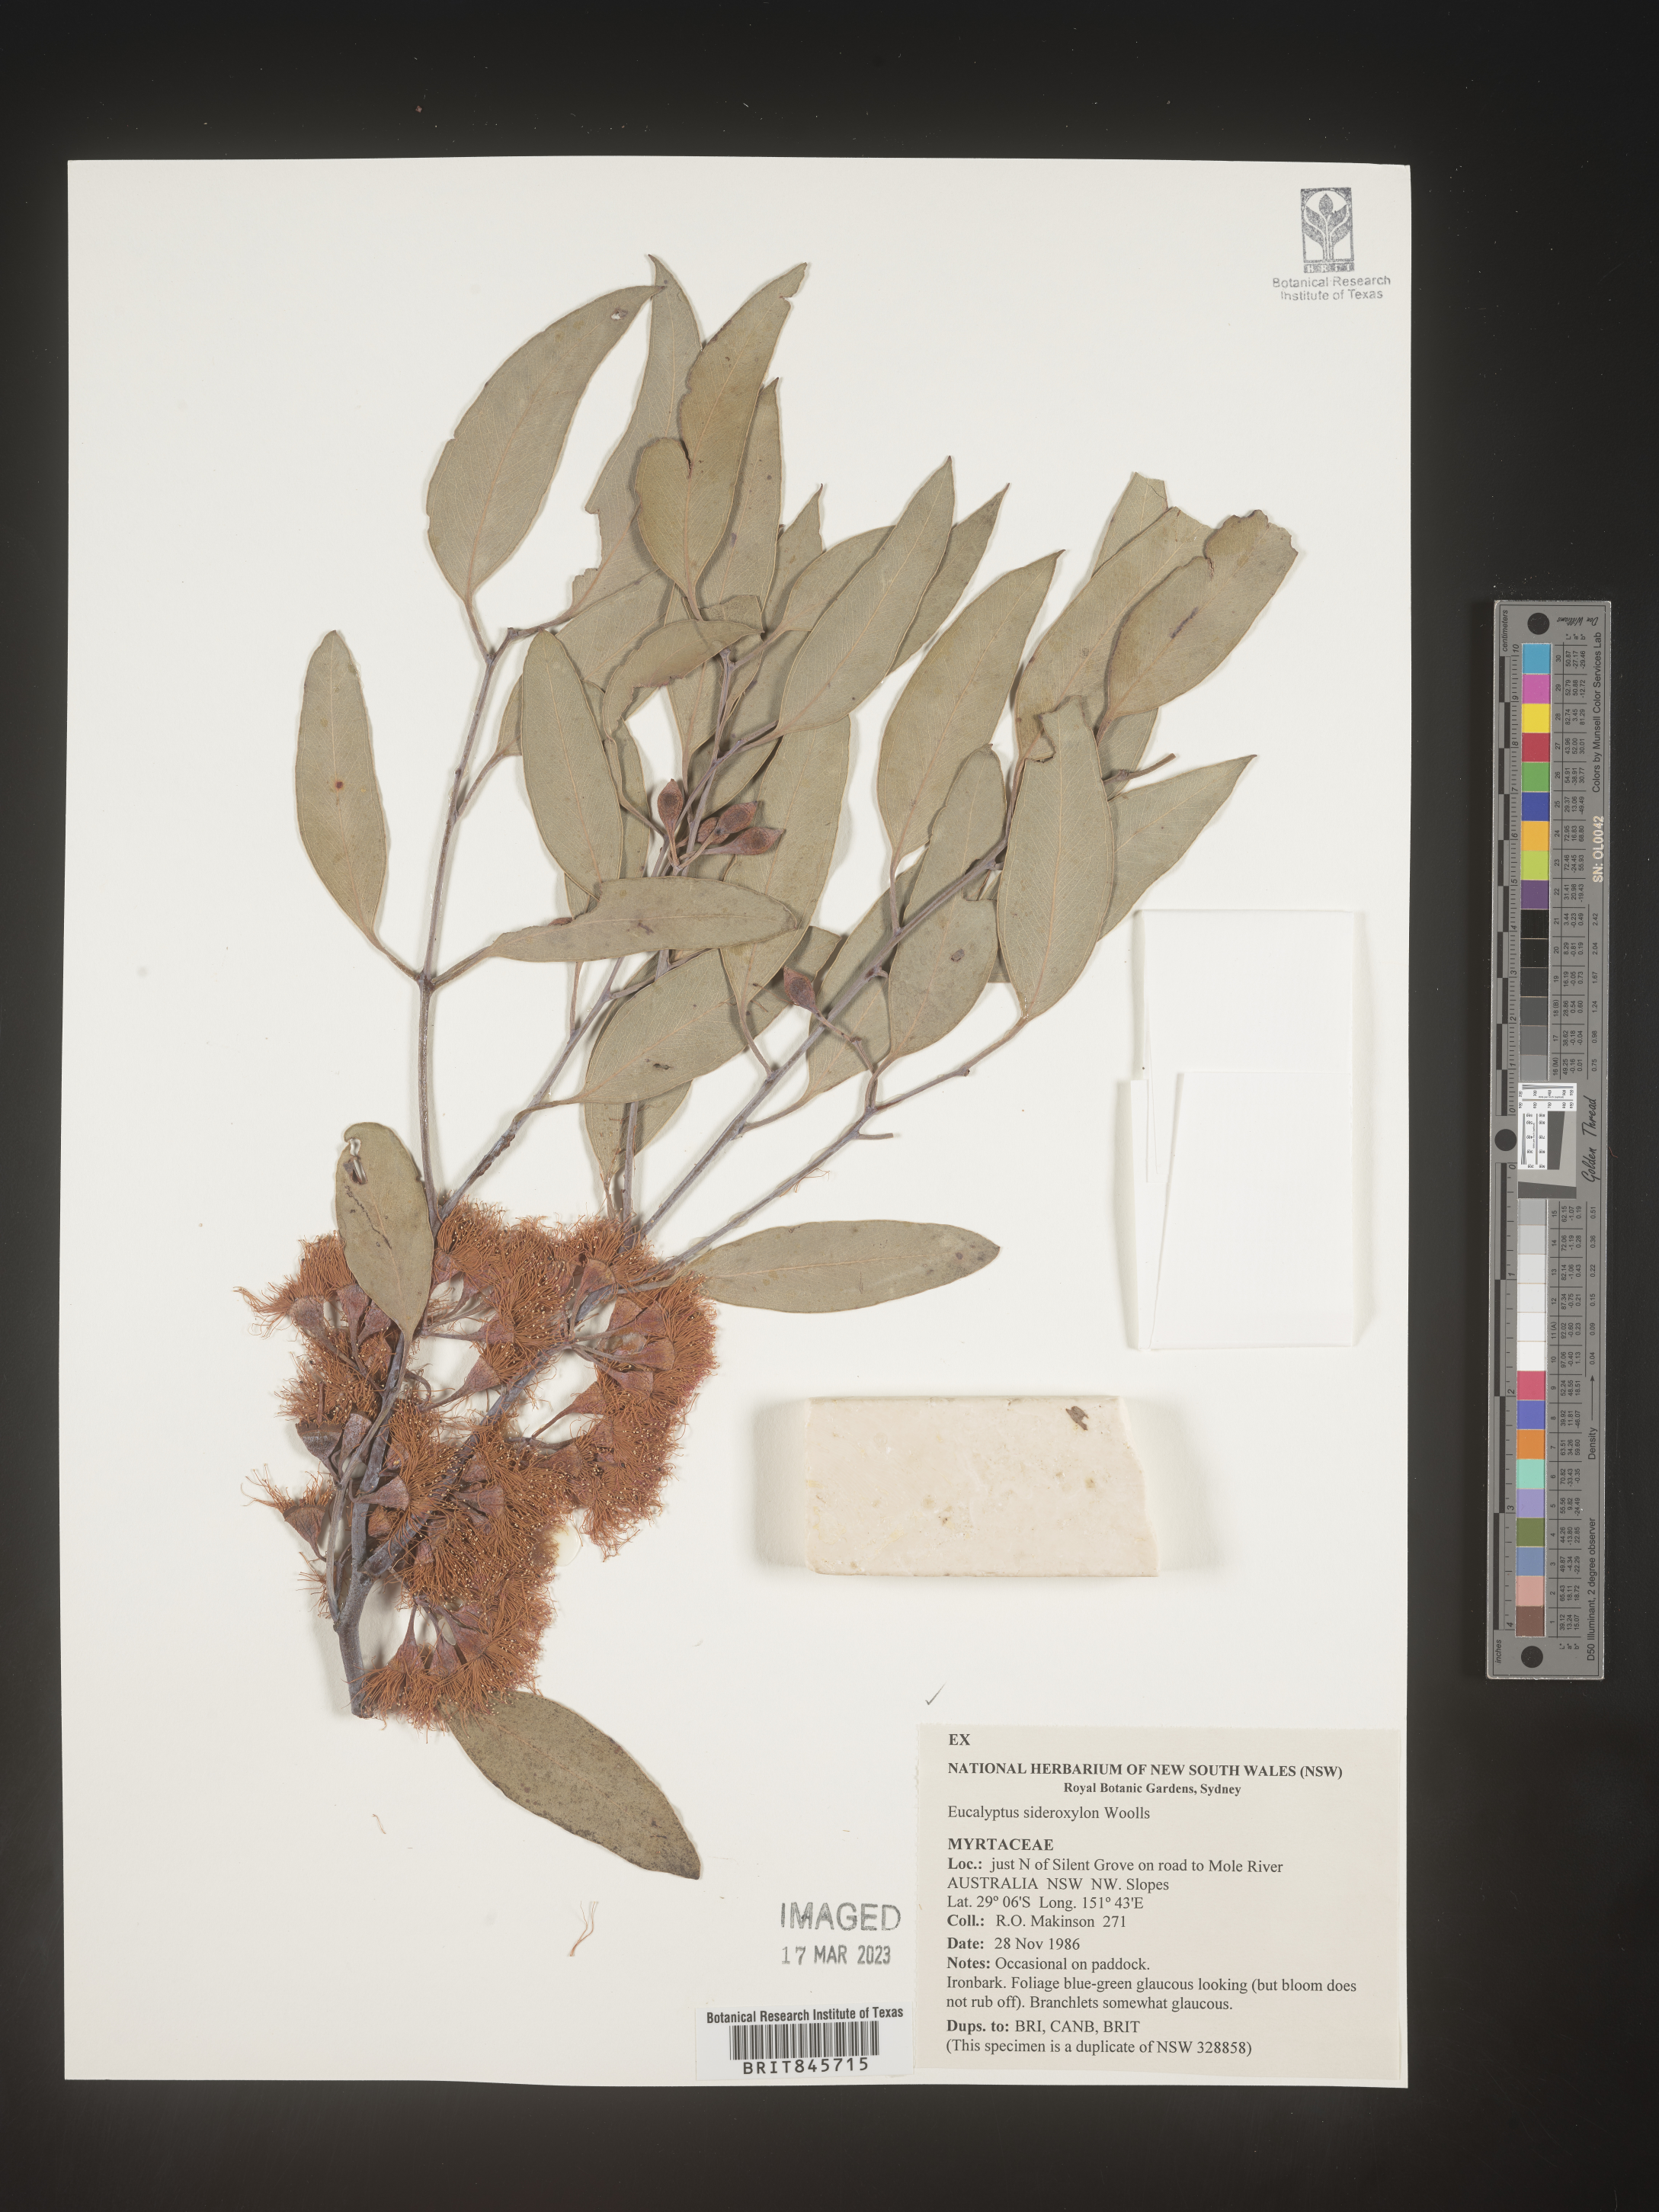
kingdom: Plantae
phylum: Tracheophyta
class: Magnoliopsida
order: Myrtales
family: Myrtaceae
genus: Eucalyptus
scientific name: Eucalyptus
